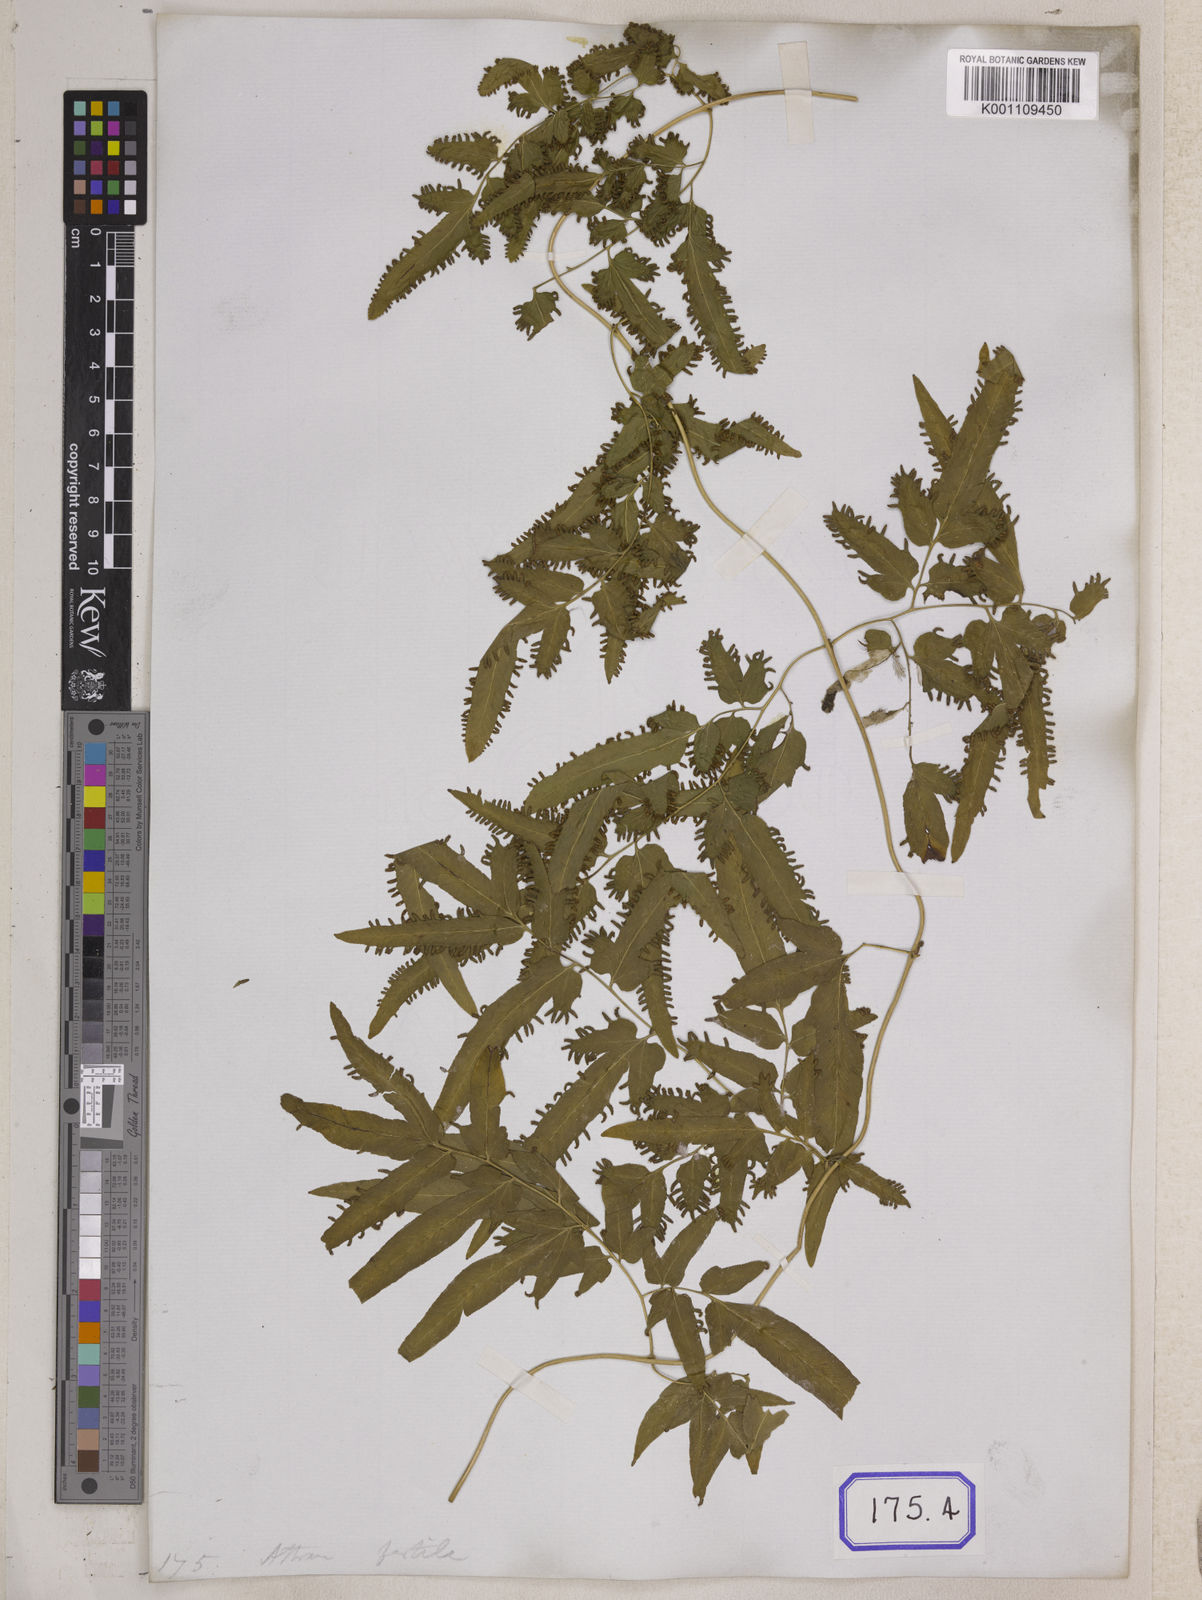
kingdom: Plantae
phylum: Tracheophyta
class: Polypodiopsida
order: Schizaeales
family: Lygodiaceae
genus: Lygodium
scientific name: Lygodium flexuosum
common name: Maidenhair creeper
